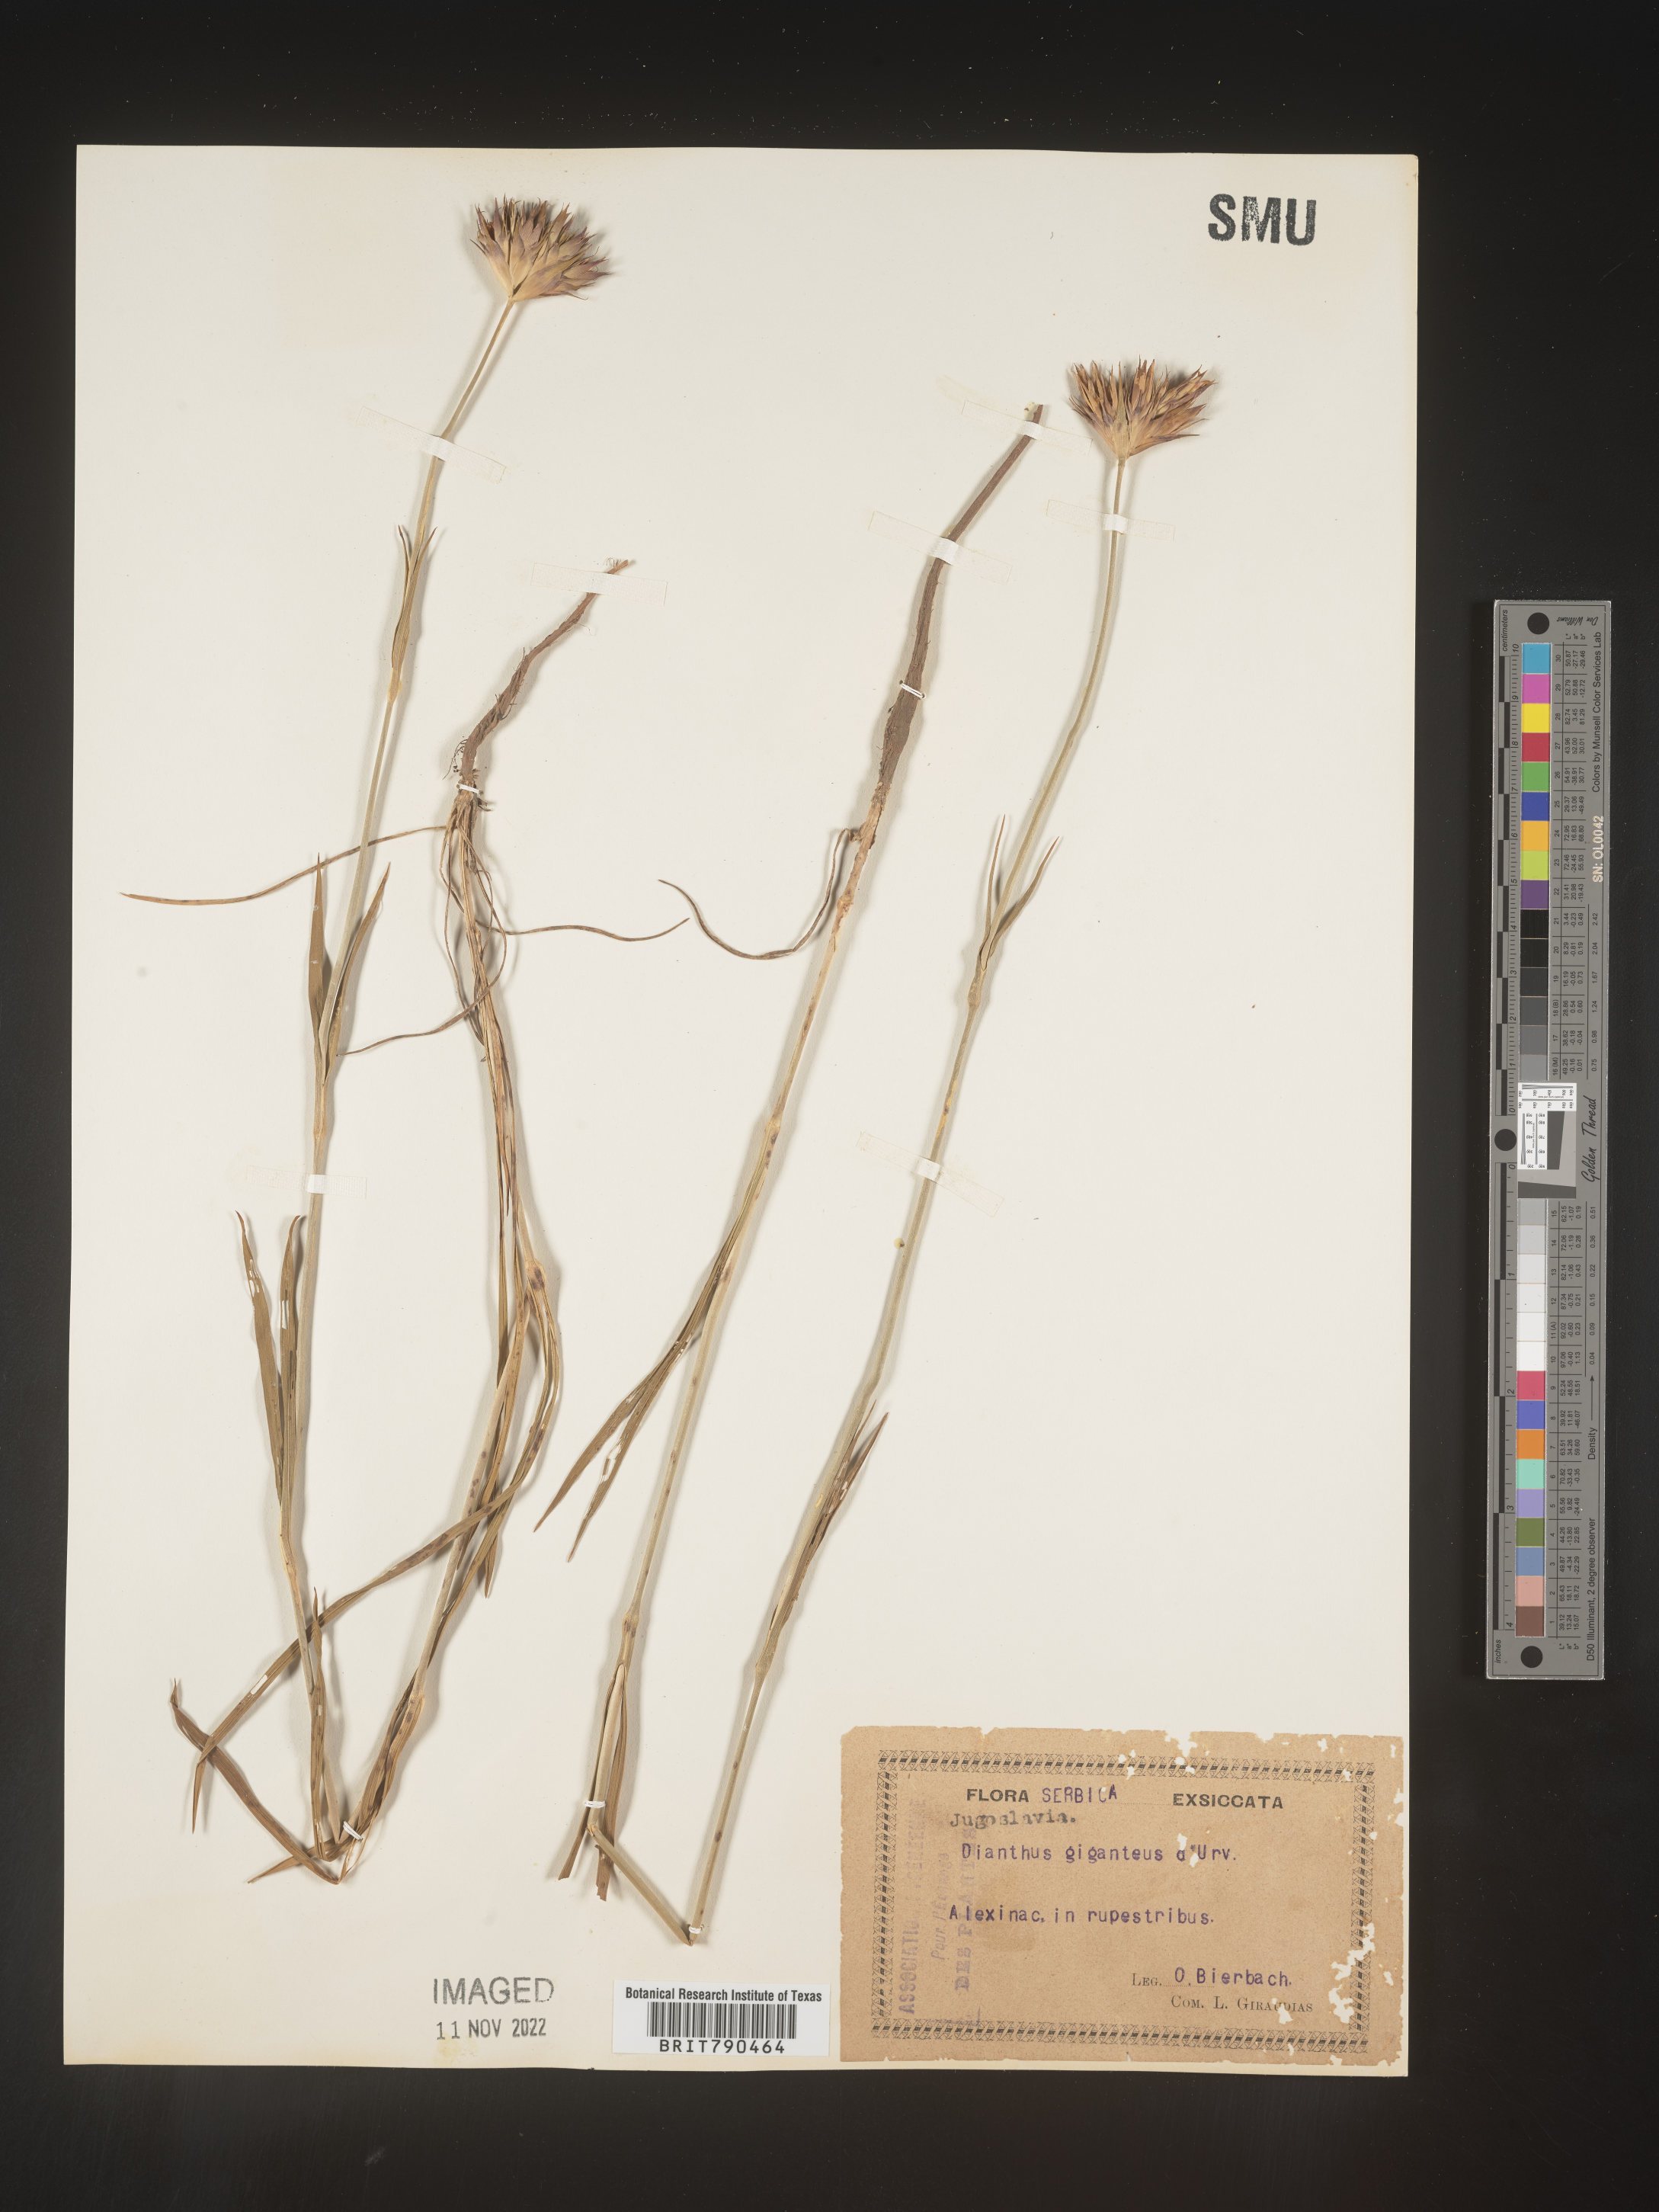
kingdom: Plantae
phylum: Tracheophyta
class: Magnoliopsida
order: Caryophyllales
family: Caryophyllaceae
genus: Dianthus
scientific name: Dianthus
